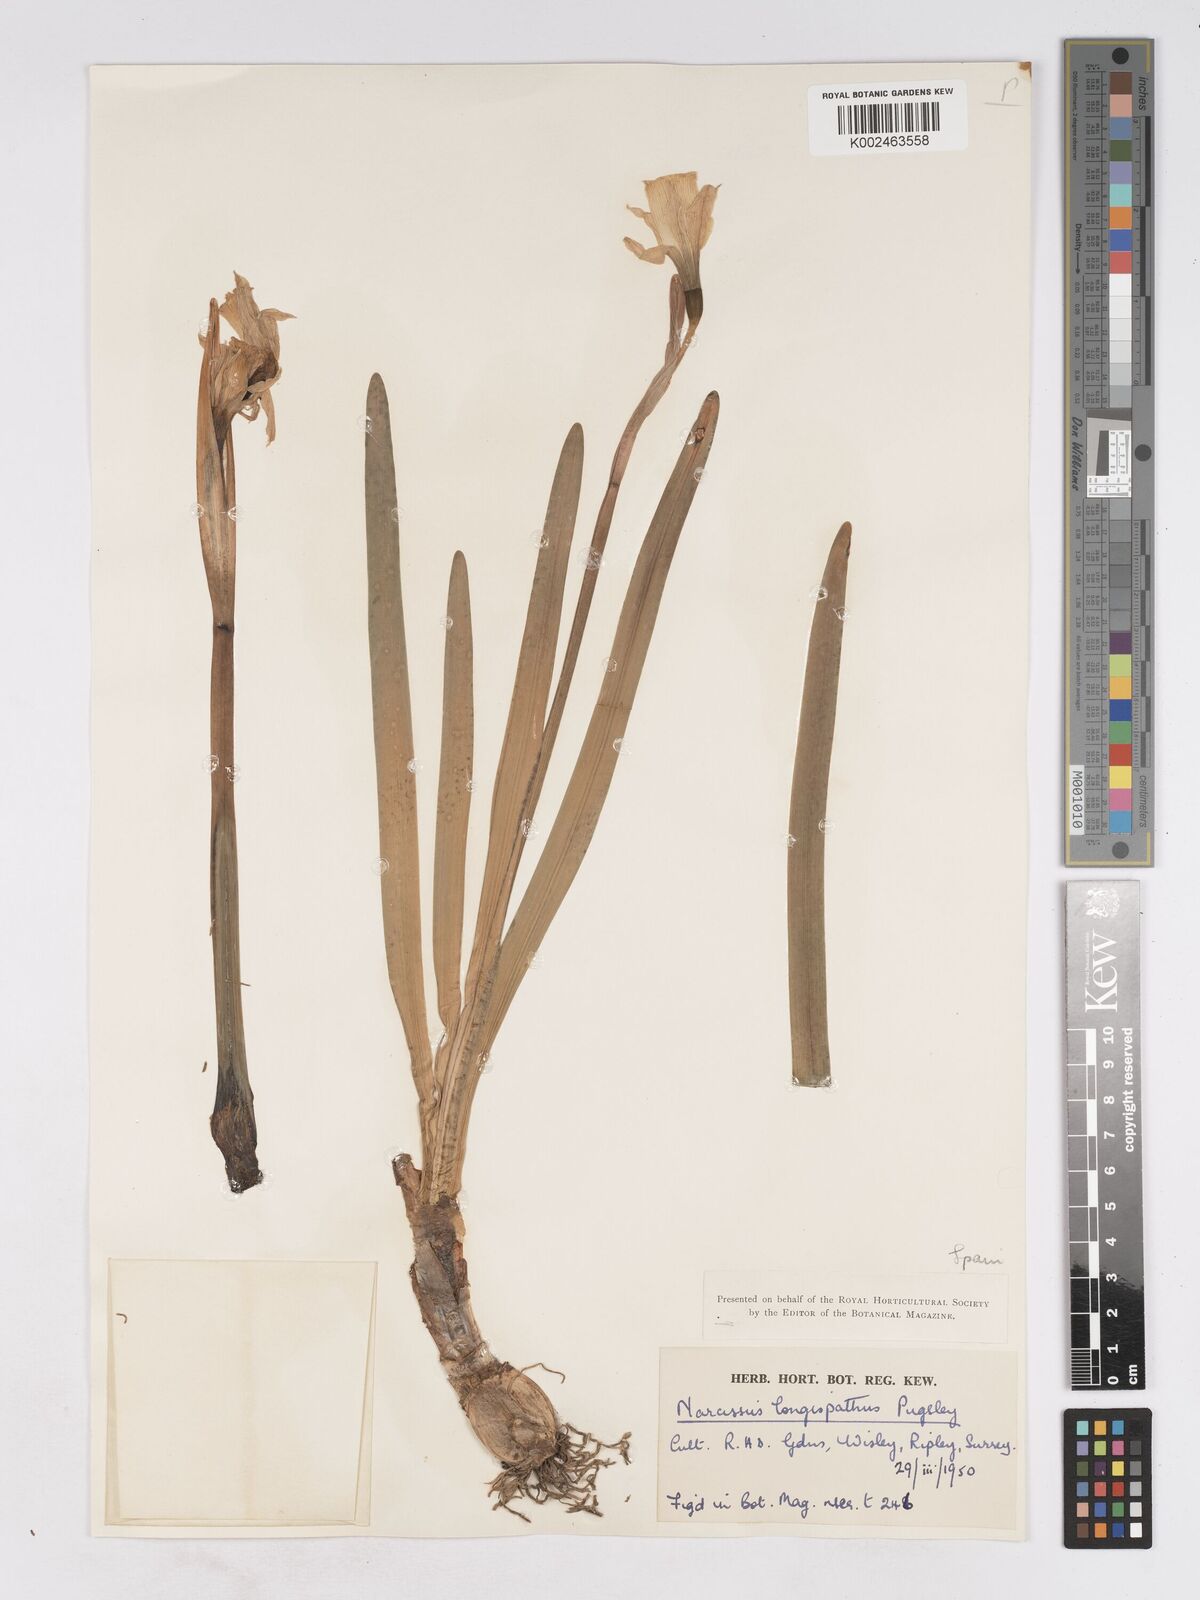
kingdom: Plantae
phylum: Tracheophyta
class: Liliopsida
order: Asparagales
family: Amaryllidaceae
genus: Narcissus
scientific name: Narcissus nevadensis
